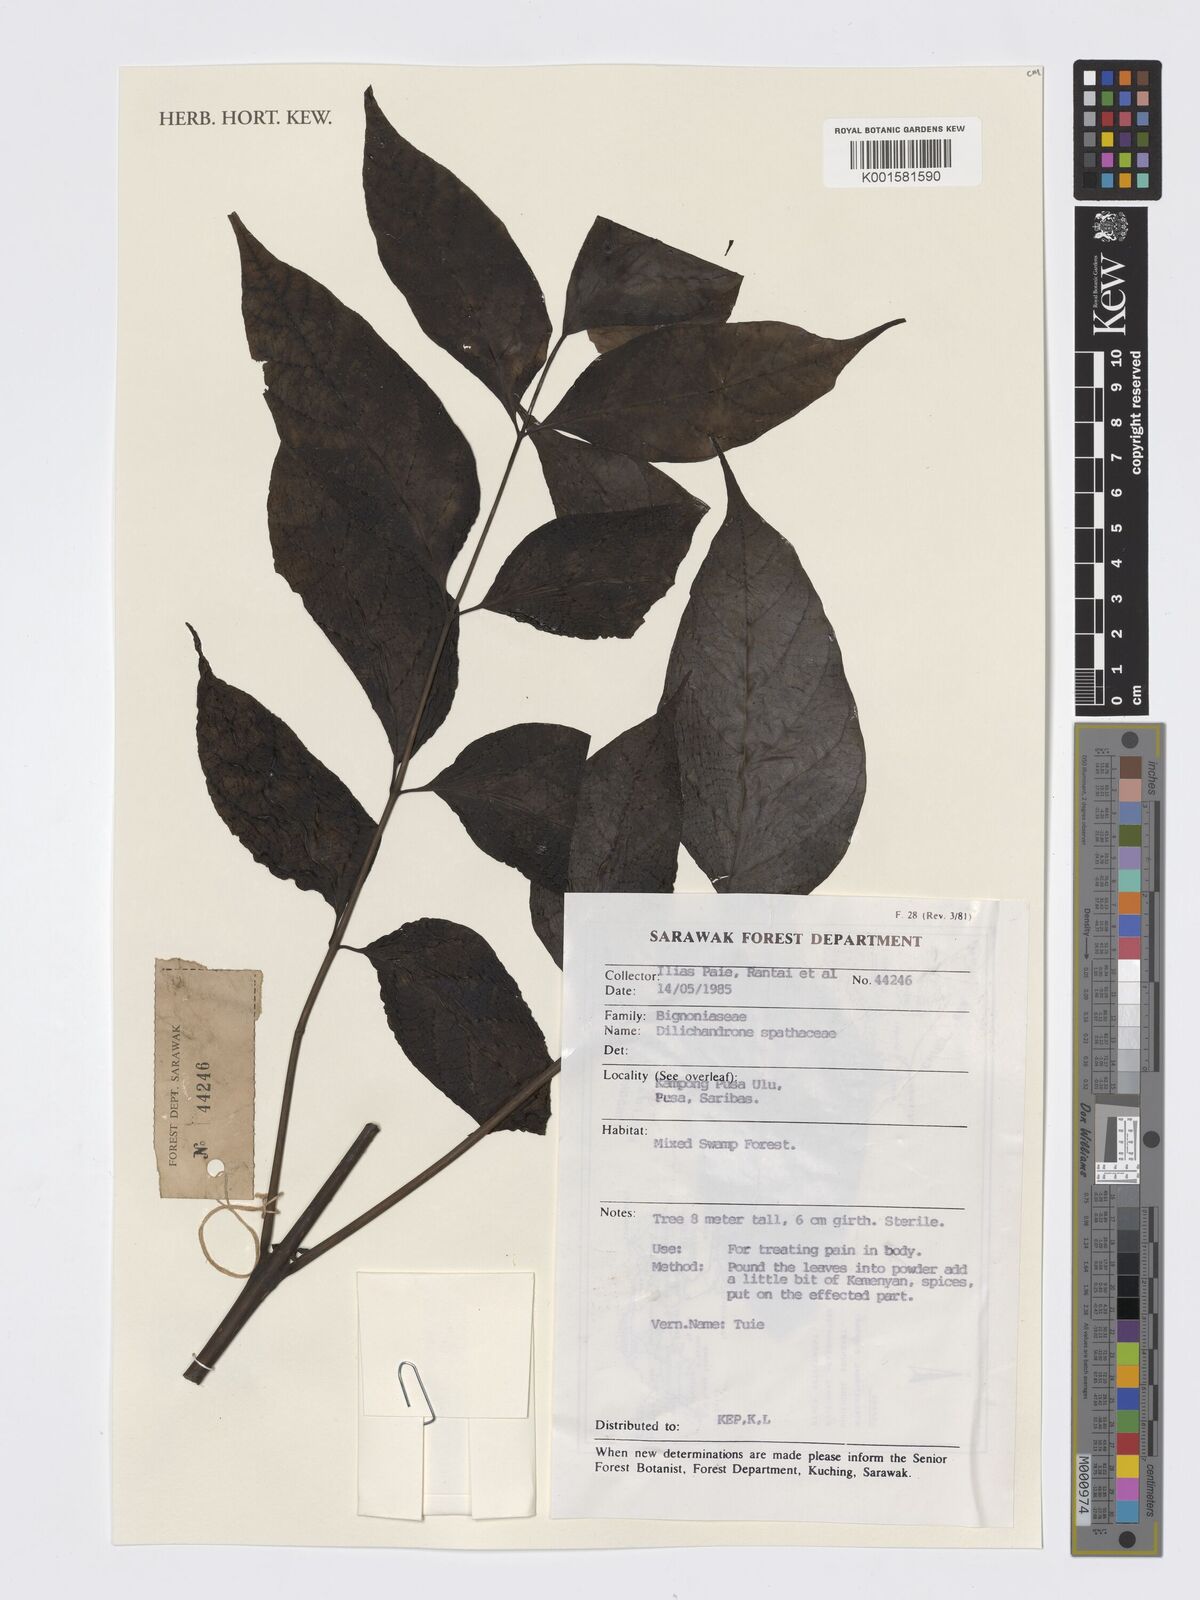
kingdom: Plantae
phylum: Tracheophyta
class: Magnoliopsida
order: Lamiales
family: Bignoniaceae
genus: Dolichandrone
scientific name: Dolichandrone spathacea
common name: Mangrove trumpet-tree
